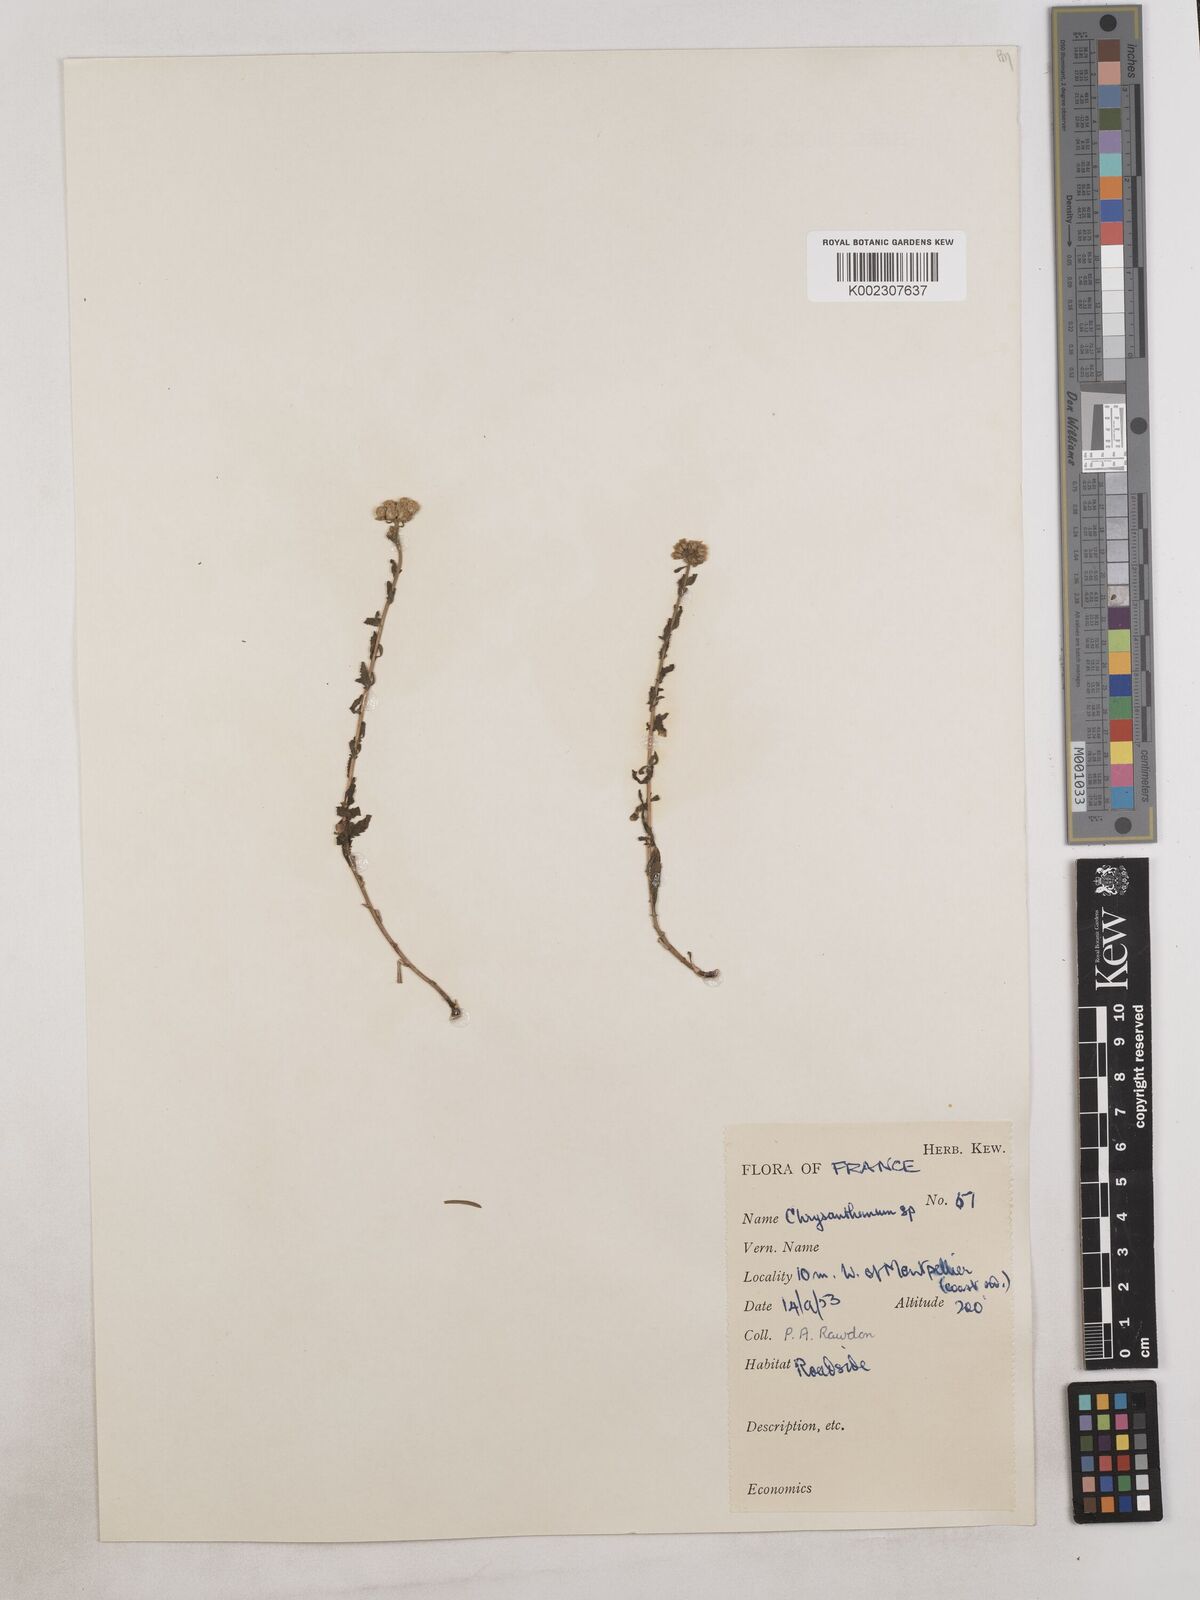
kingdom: Plantae
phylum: Tracheophyta
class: Magnoliopsida
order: Asterales
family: Asteraceae
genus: Achillea
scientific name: Achillea
